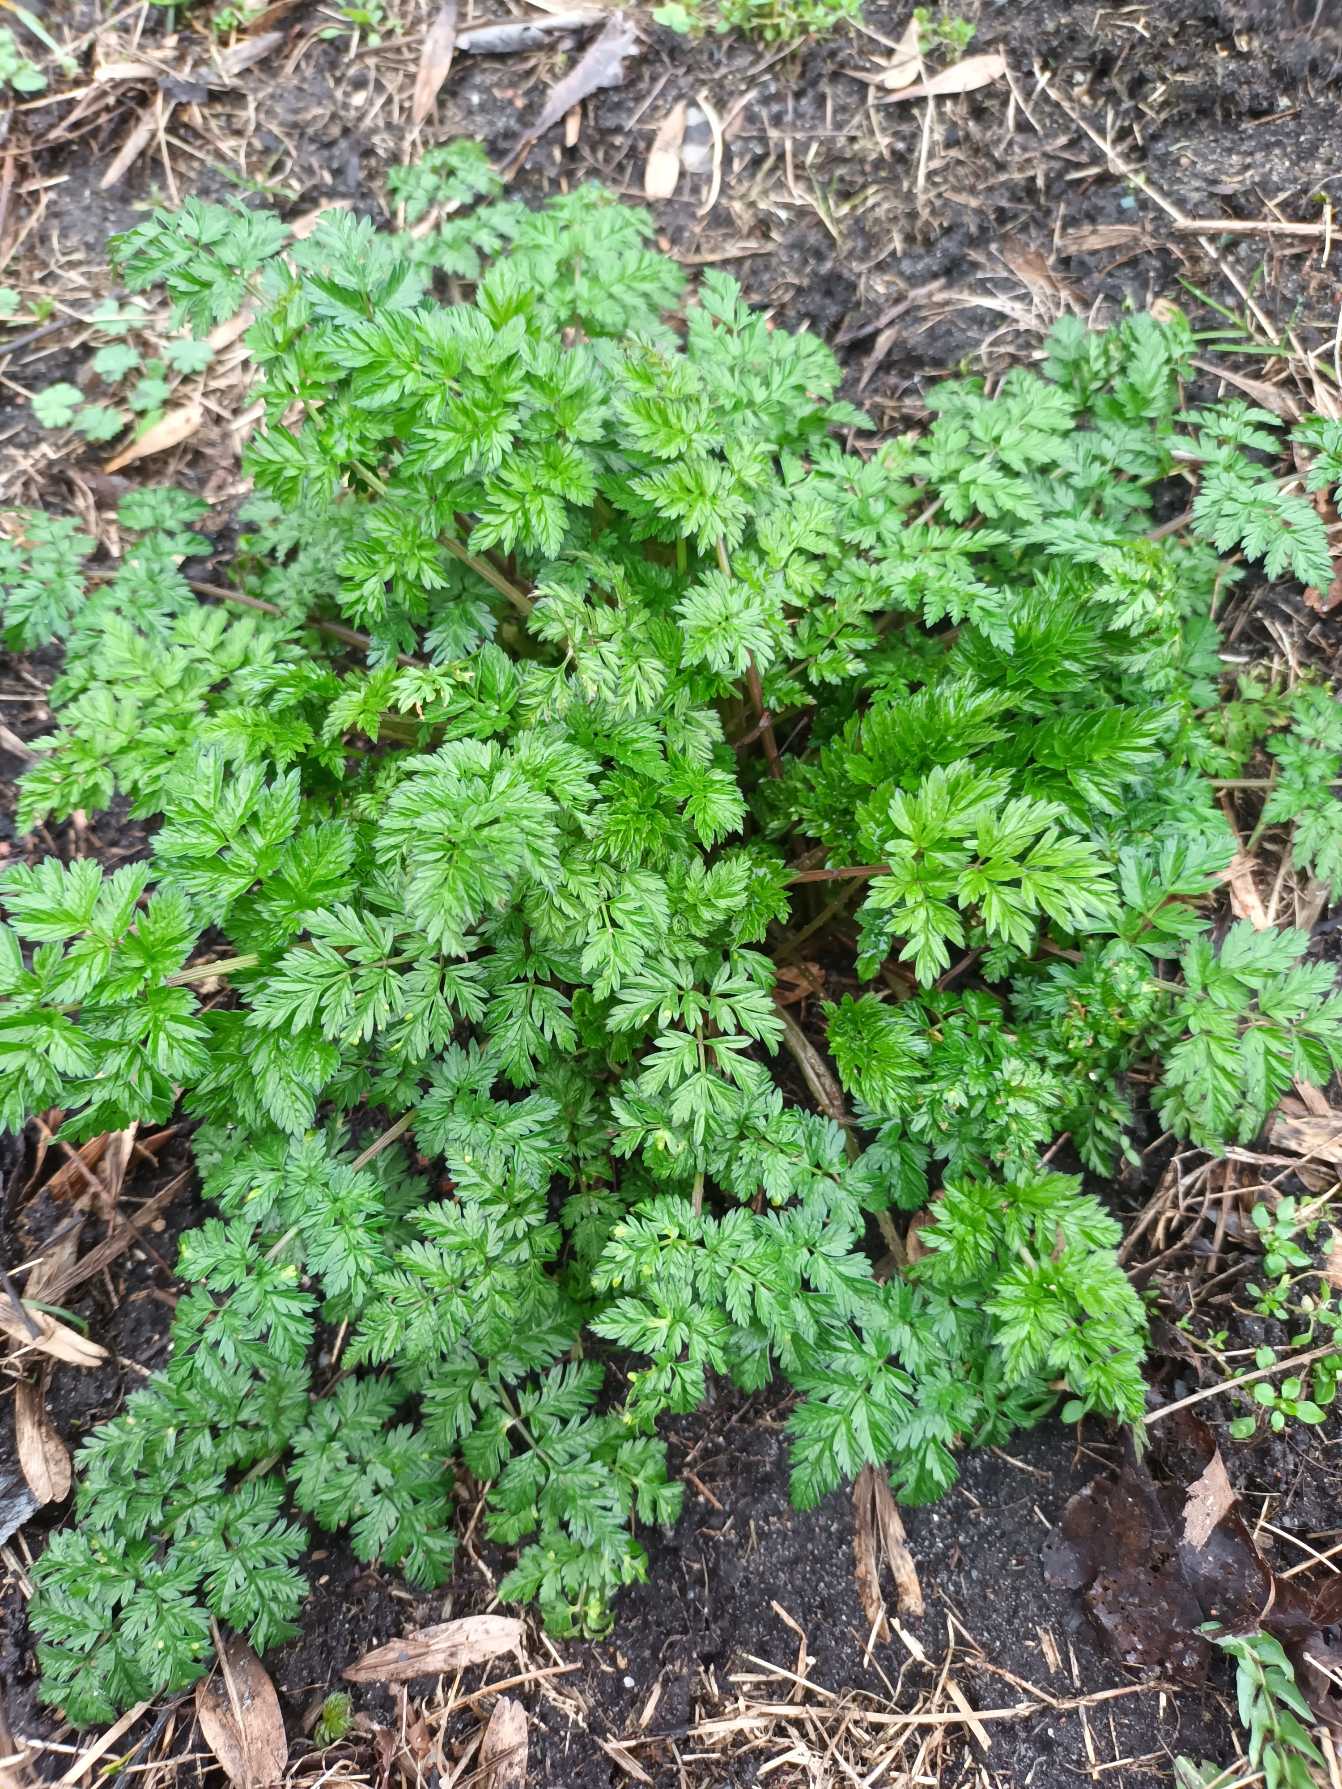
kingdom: Plantae
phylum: Tracheophyta
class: Magnoliopsida
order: Apiales
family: Apiaceae
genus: Anthriscus
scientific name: Anthriscus sylvestris
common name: Vild kørvel
